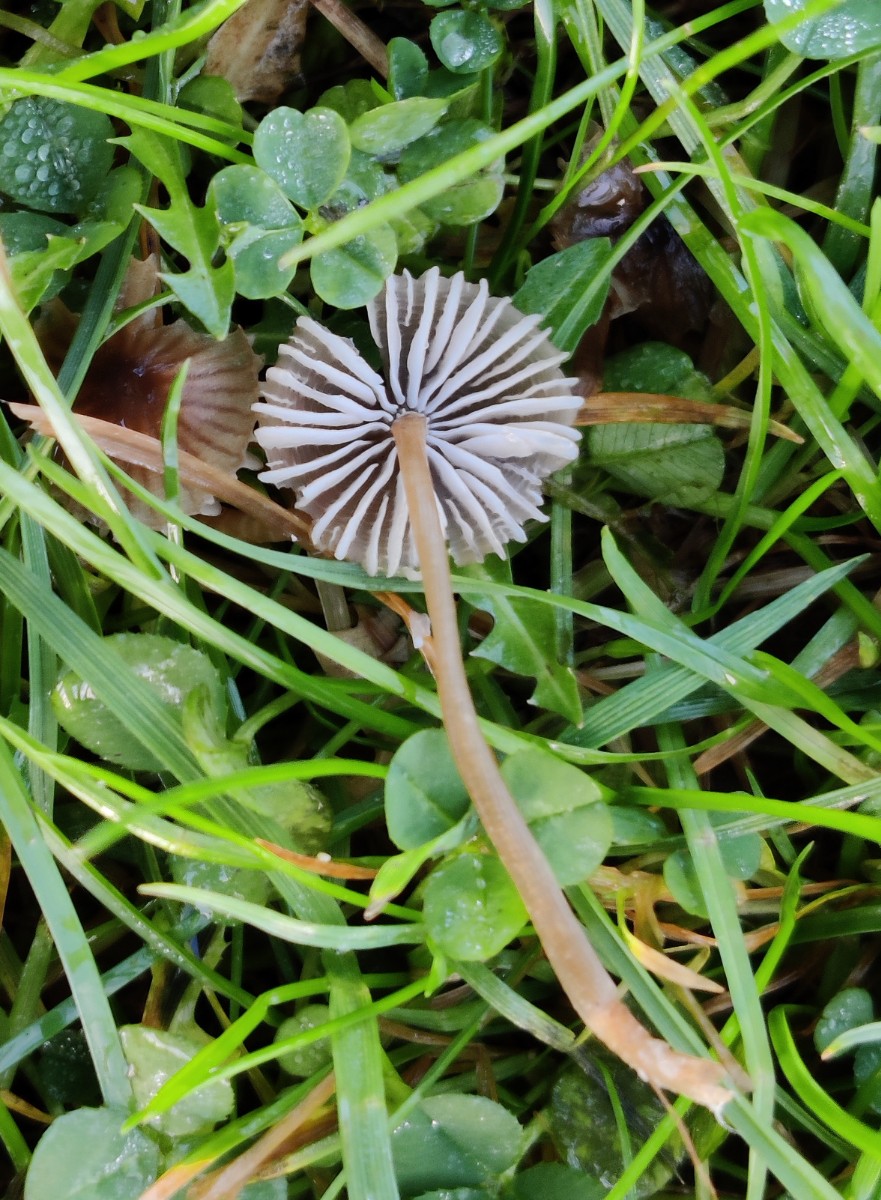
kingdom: Fungi
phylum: Basidiomycota
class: Agaricomycetes
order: Agaricales
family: Mycenaceae
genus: Mycena
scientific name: Mycena
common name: huesvamp
